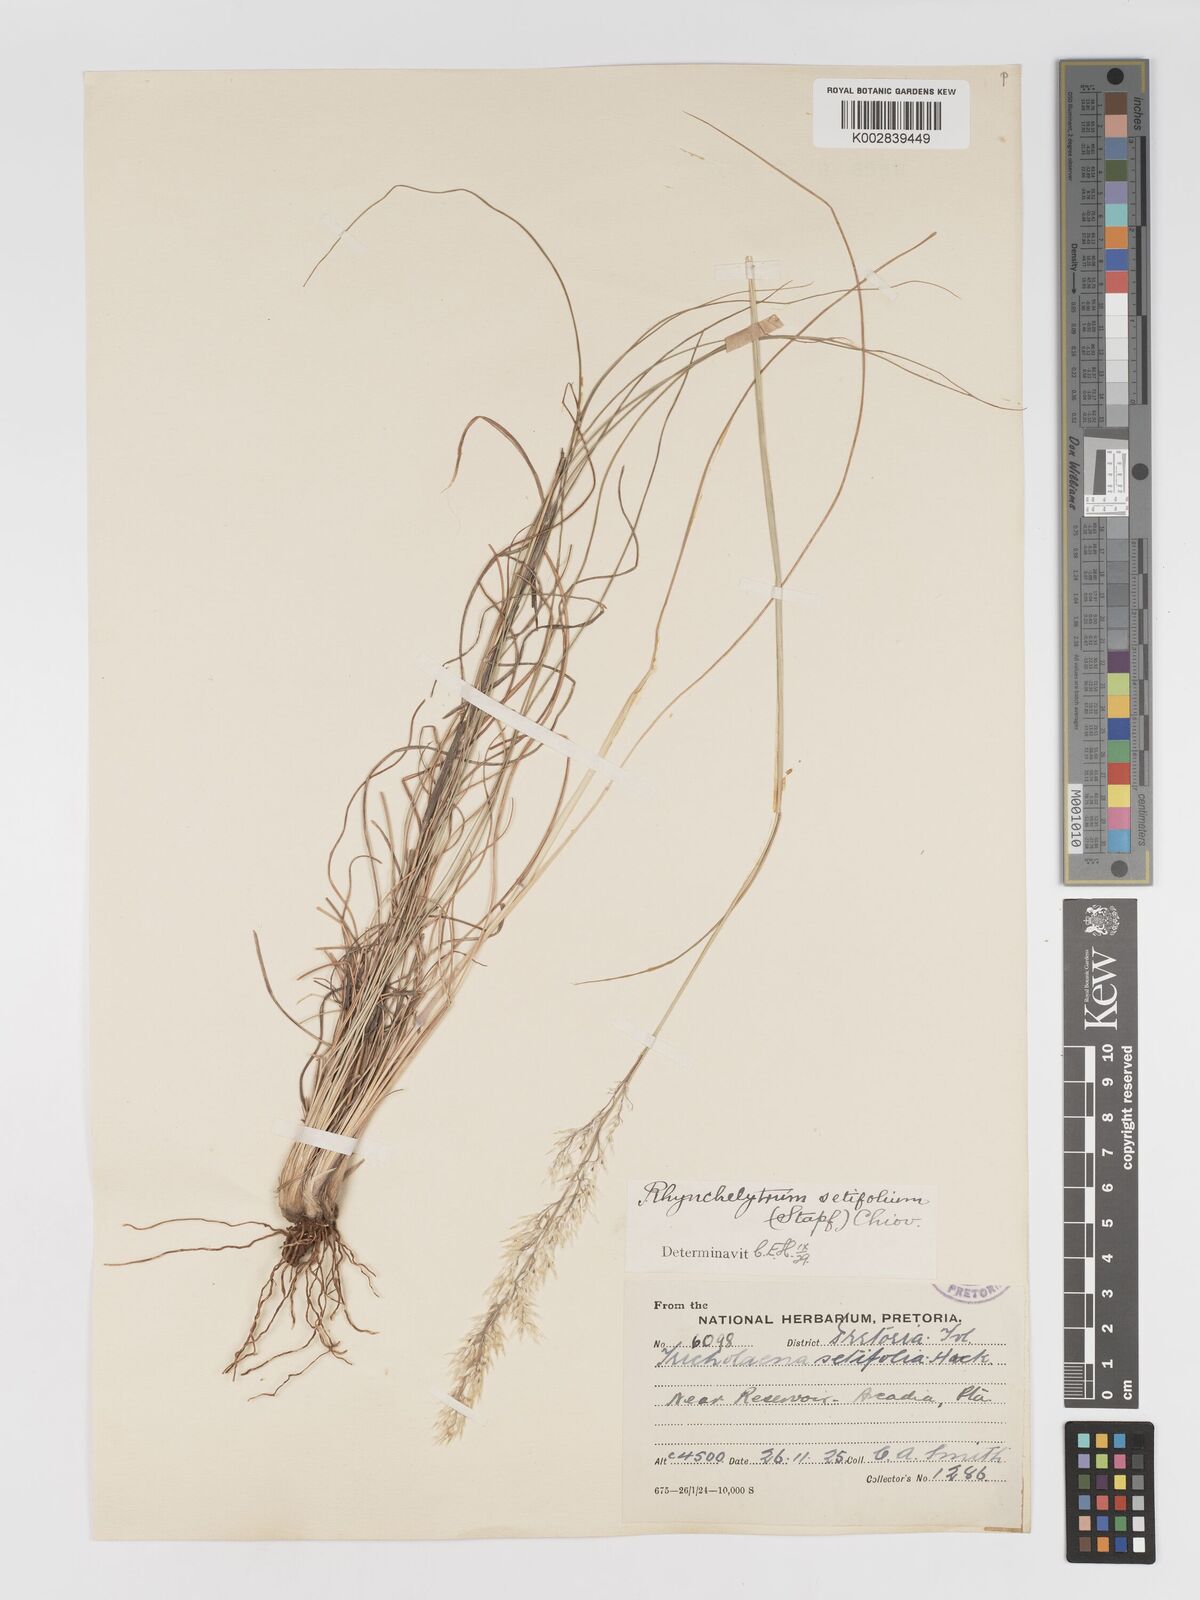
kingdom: Plantae
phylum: Tracheophyta
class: Liliopsida
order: Poales
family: Poaceae
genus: Melinis
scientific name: Melinis nerviglumis
